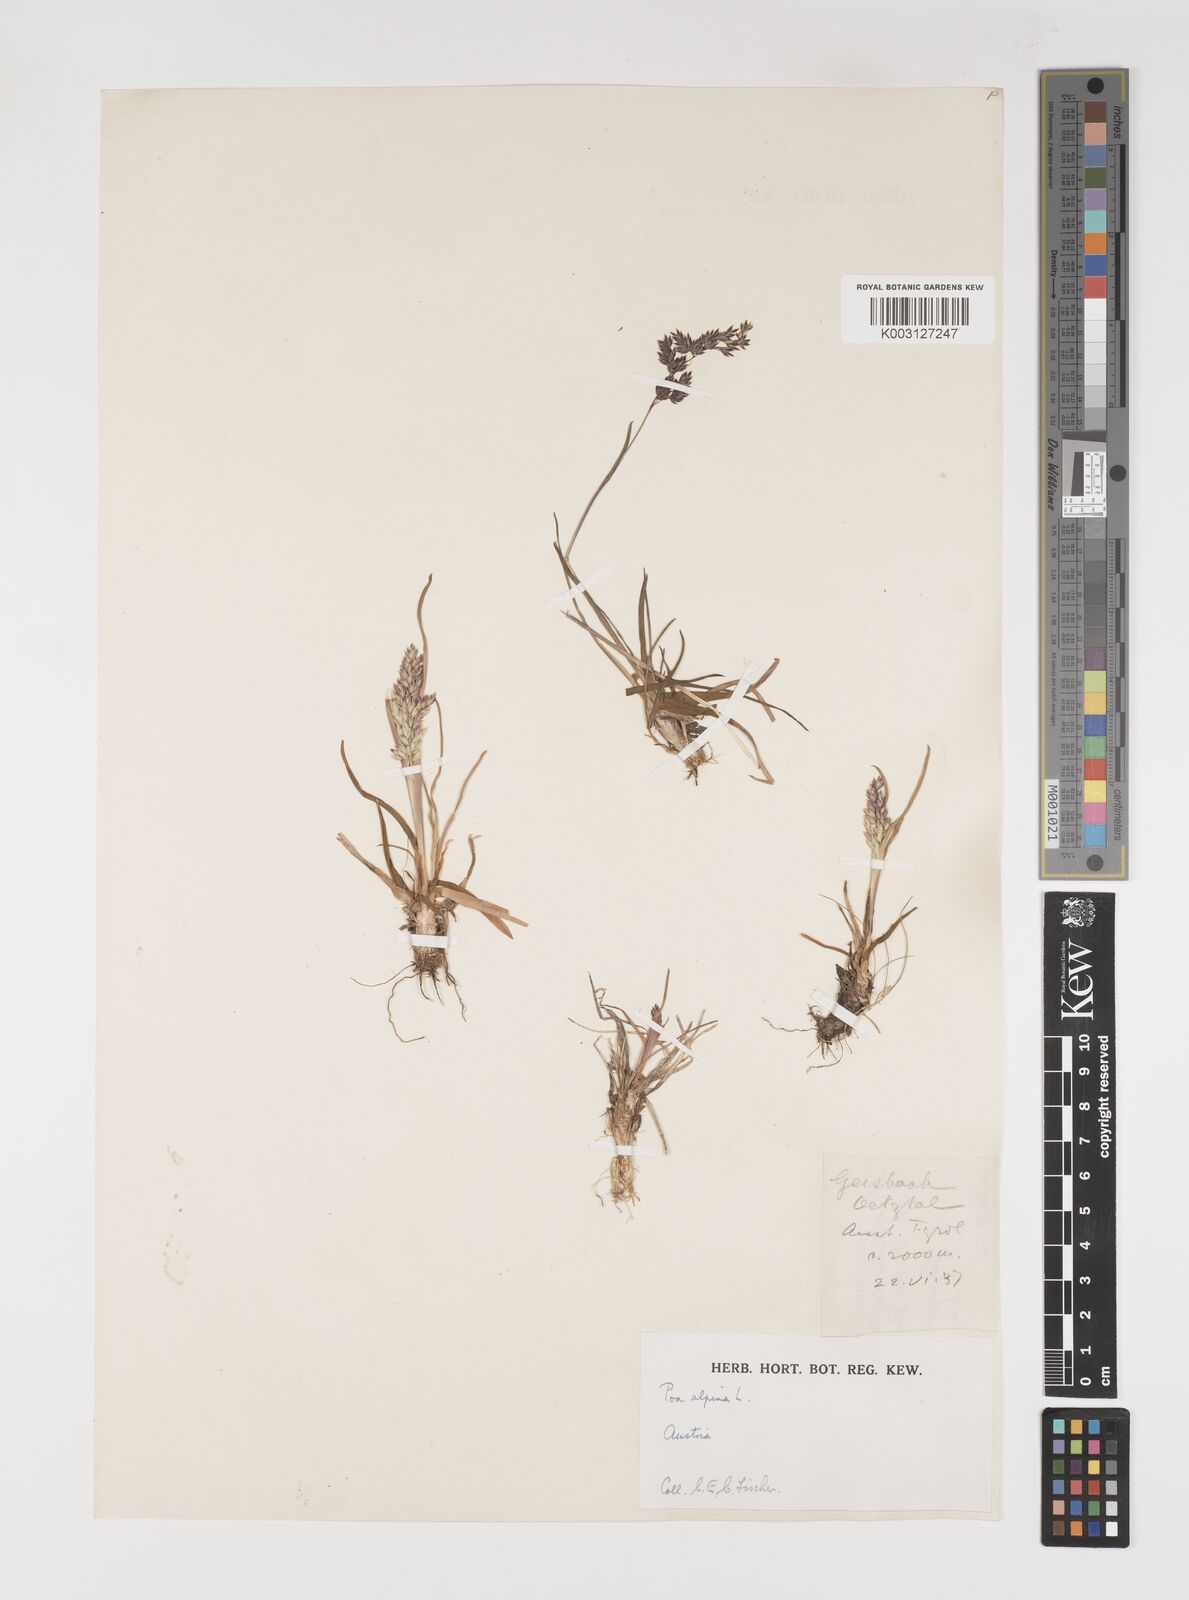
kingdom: Plantae
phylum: Tracheophyta
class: Liliopsida
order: Poales
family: Poaceae
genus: Poa
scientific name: Poa alpina
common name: Alpine bluegrass
